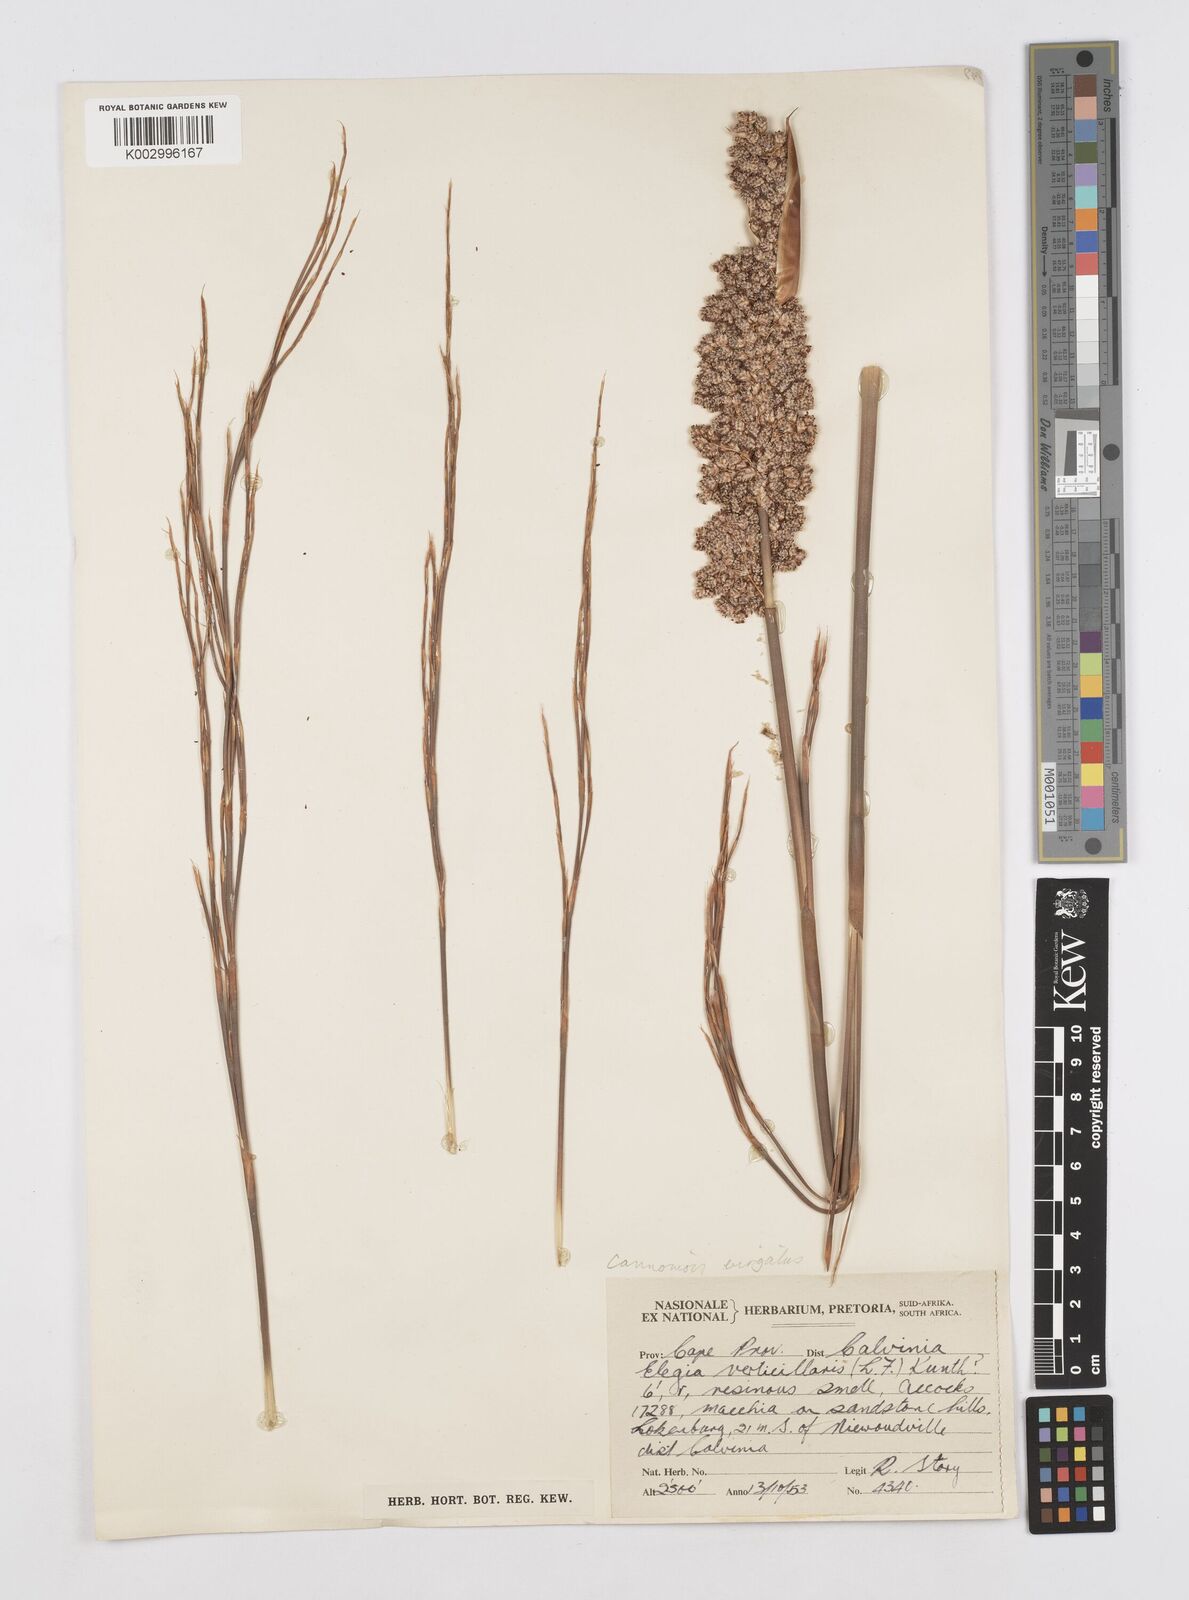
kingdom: Plantae
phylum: Tracheophyta
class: Liliopsida
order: Poales
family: Restionaceae
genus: Cannomois
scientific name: Cannomois virgata
